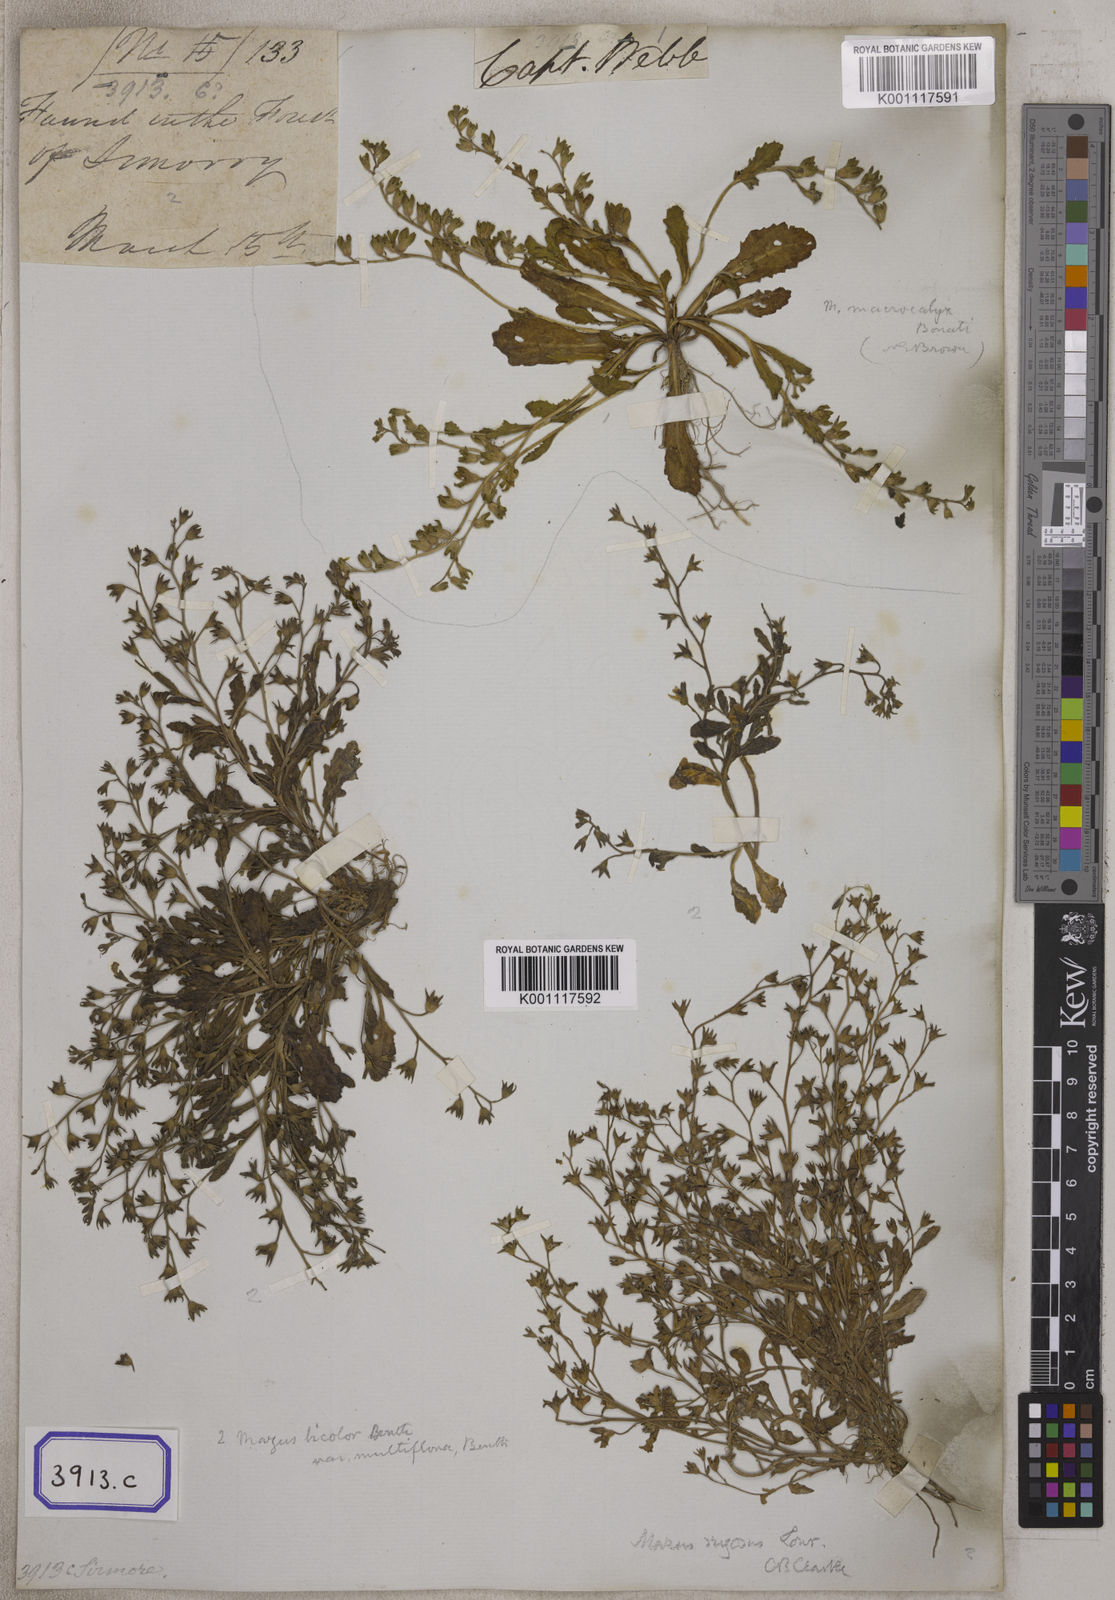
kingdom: Plantae
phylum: Tracheophyta
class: Magnoliopsida
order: Lamiales
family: Mazaceae
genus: Mazus
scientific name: Mazus pumilus
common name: Japanese mazus
